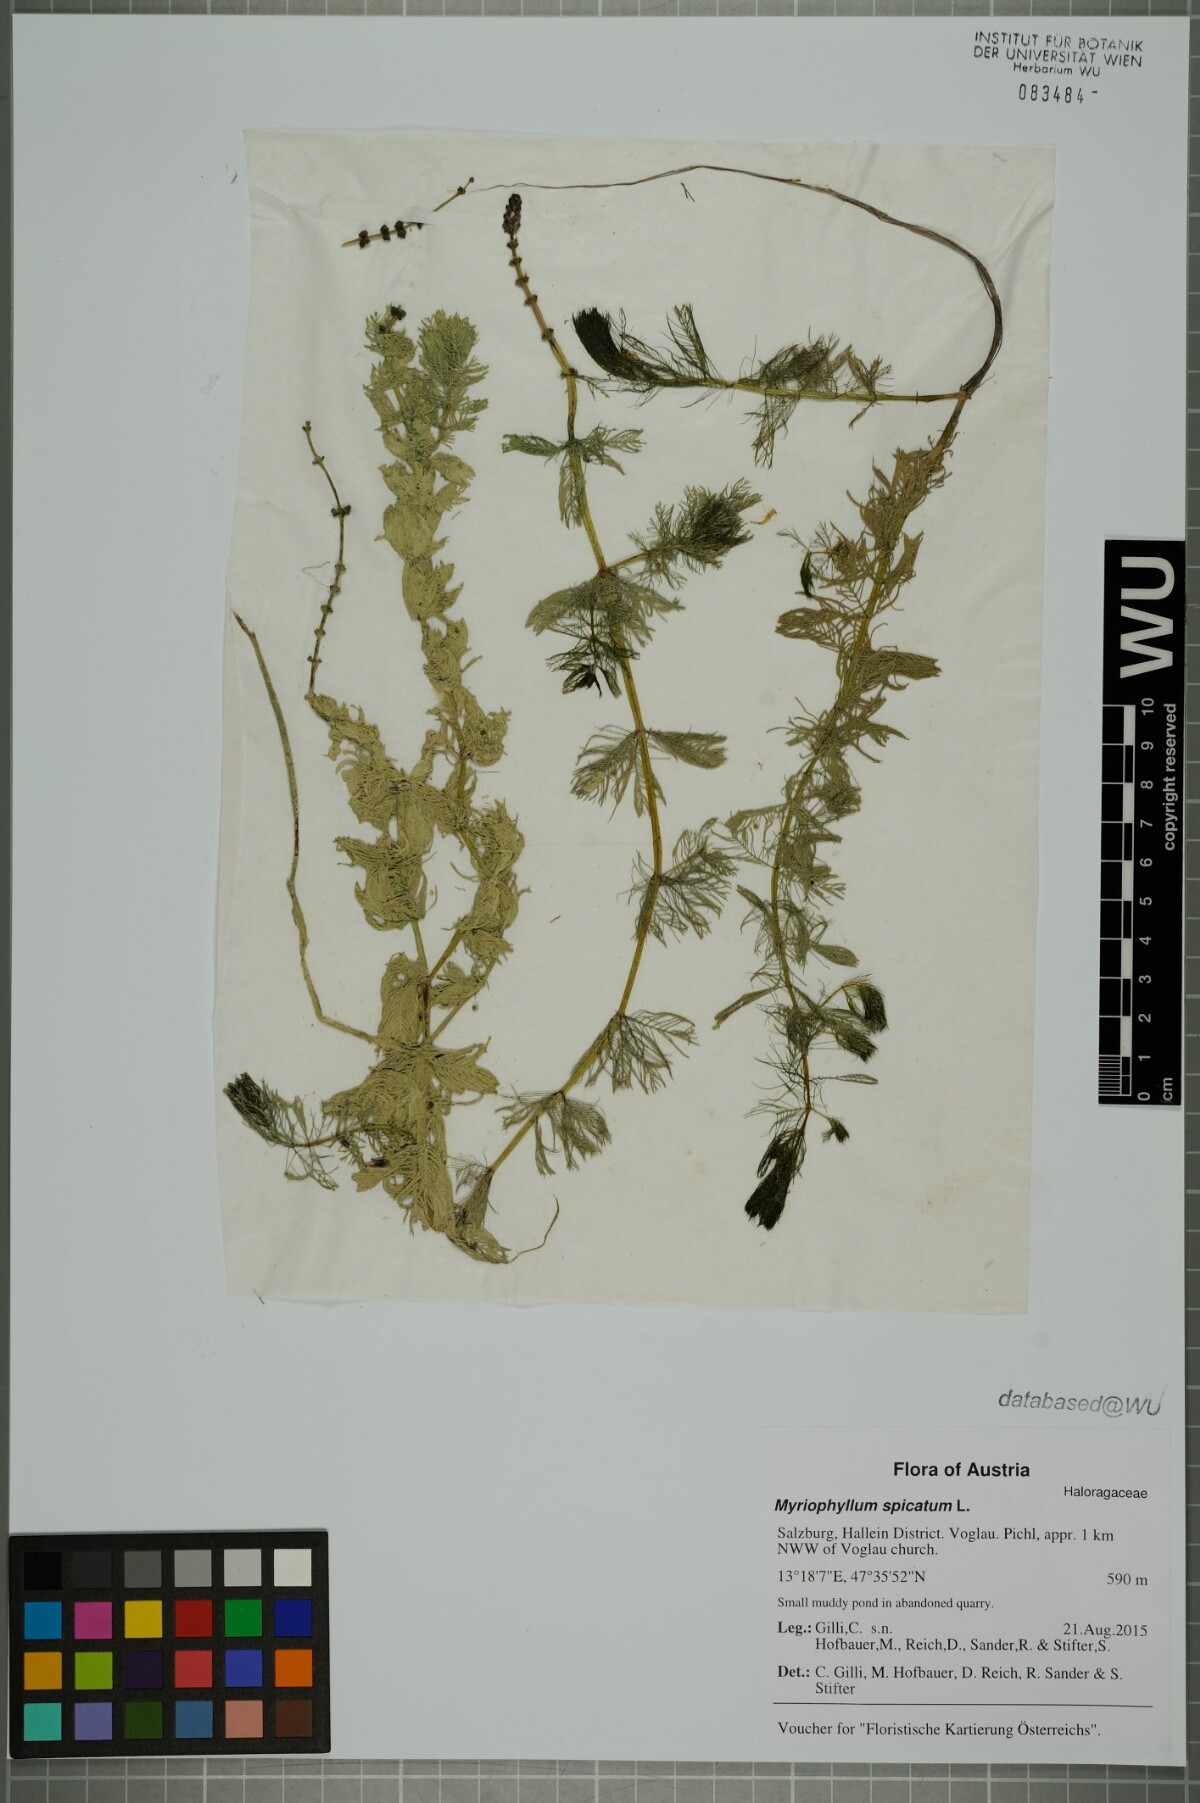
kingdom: Plantae
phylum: Tracheophyta
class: Magnoliopsida
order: Saxifragales
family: Haloragaceae
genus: Myriophyllum
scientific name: Myriophyllum spicatum
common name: Spiked water-milfoil
